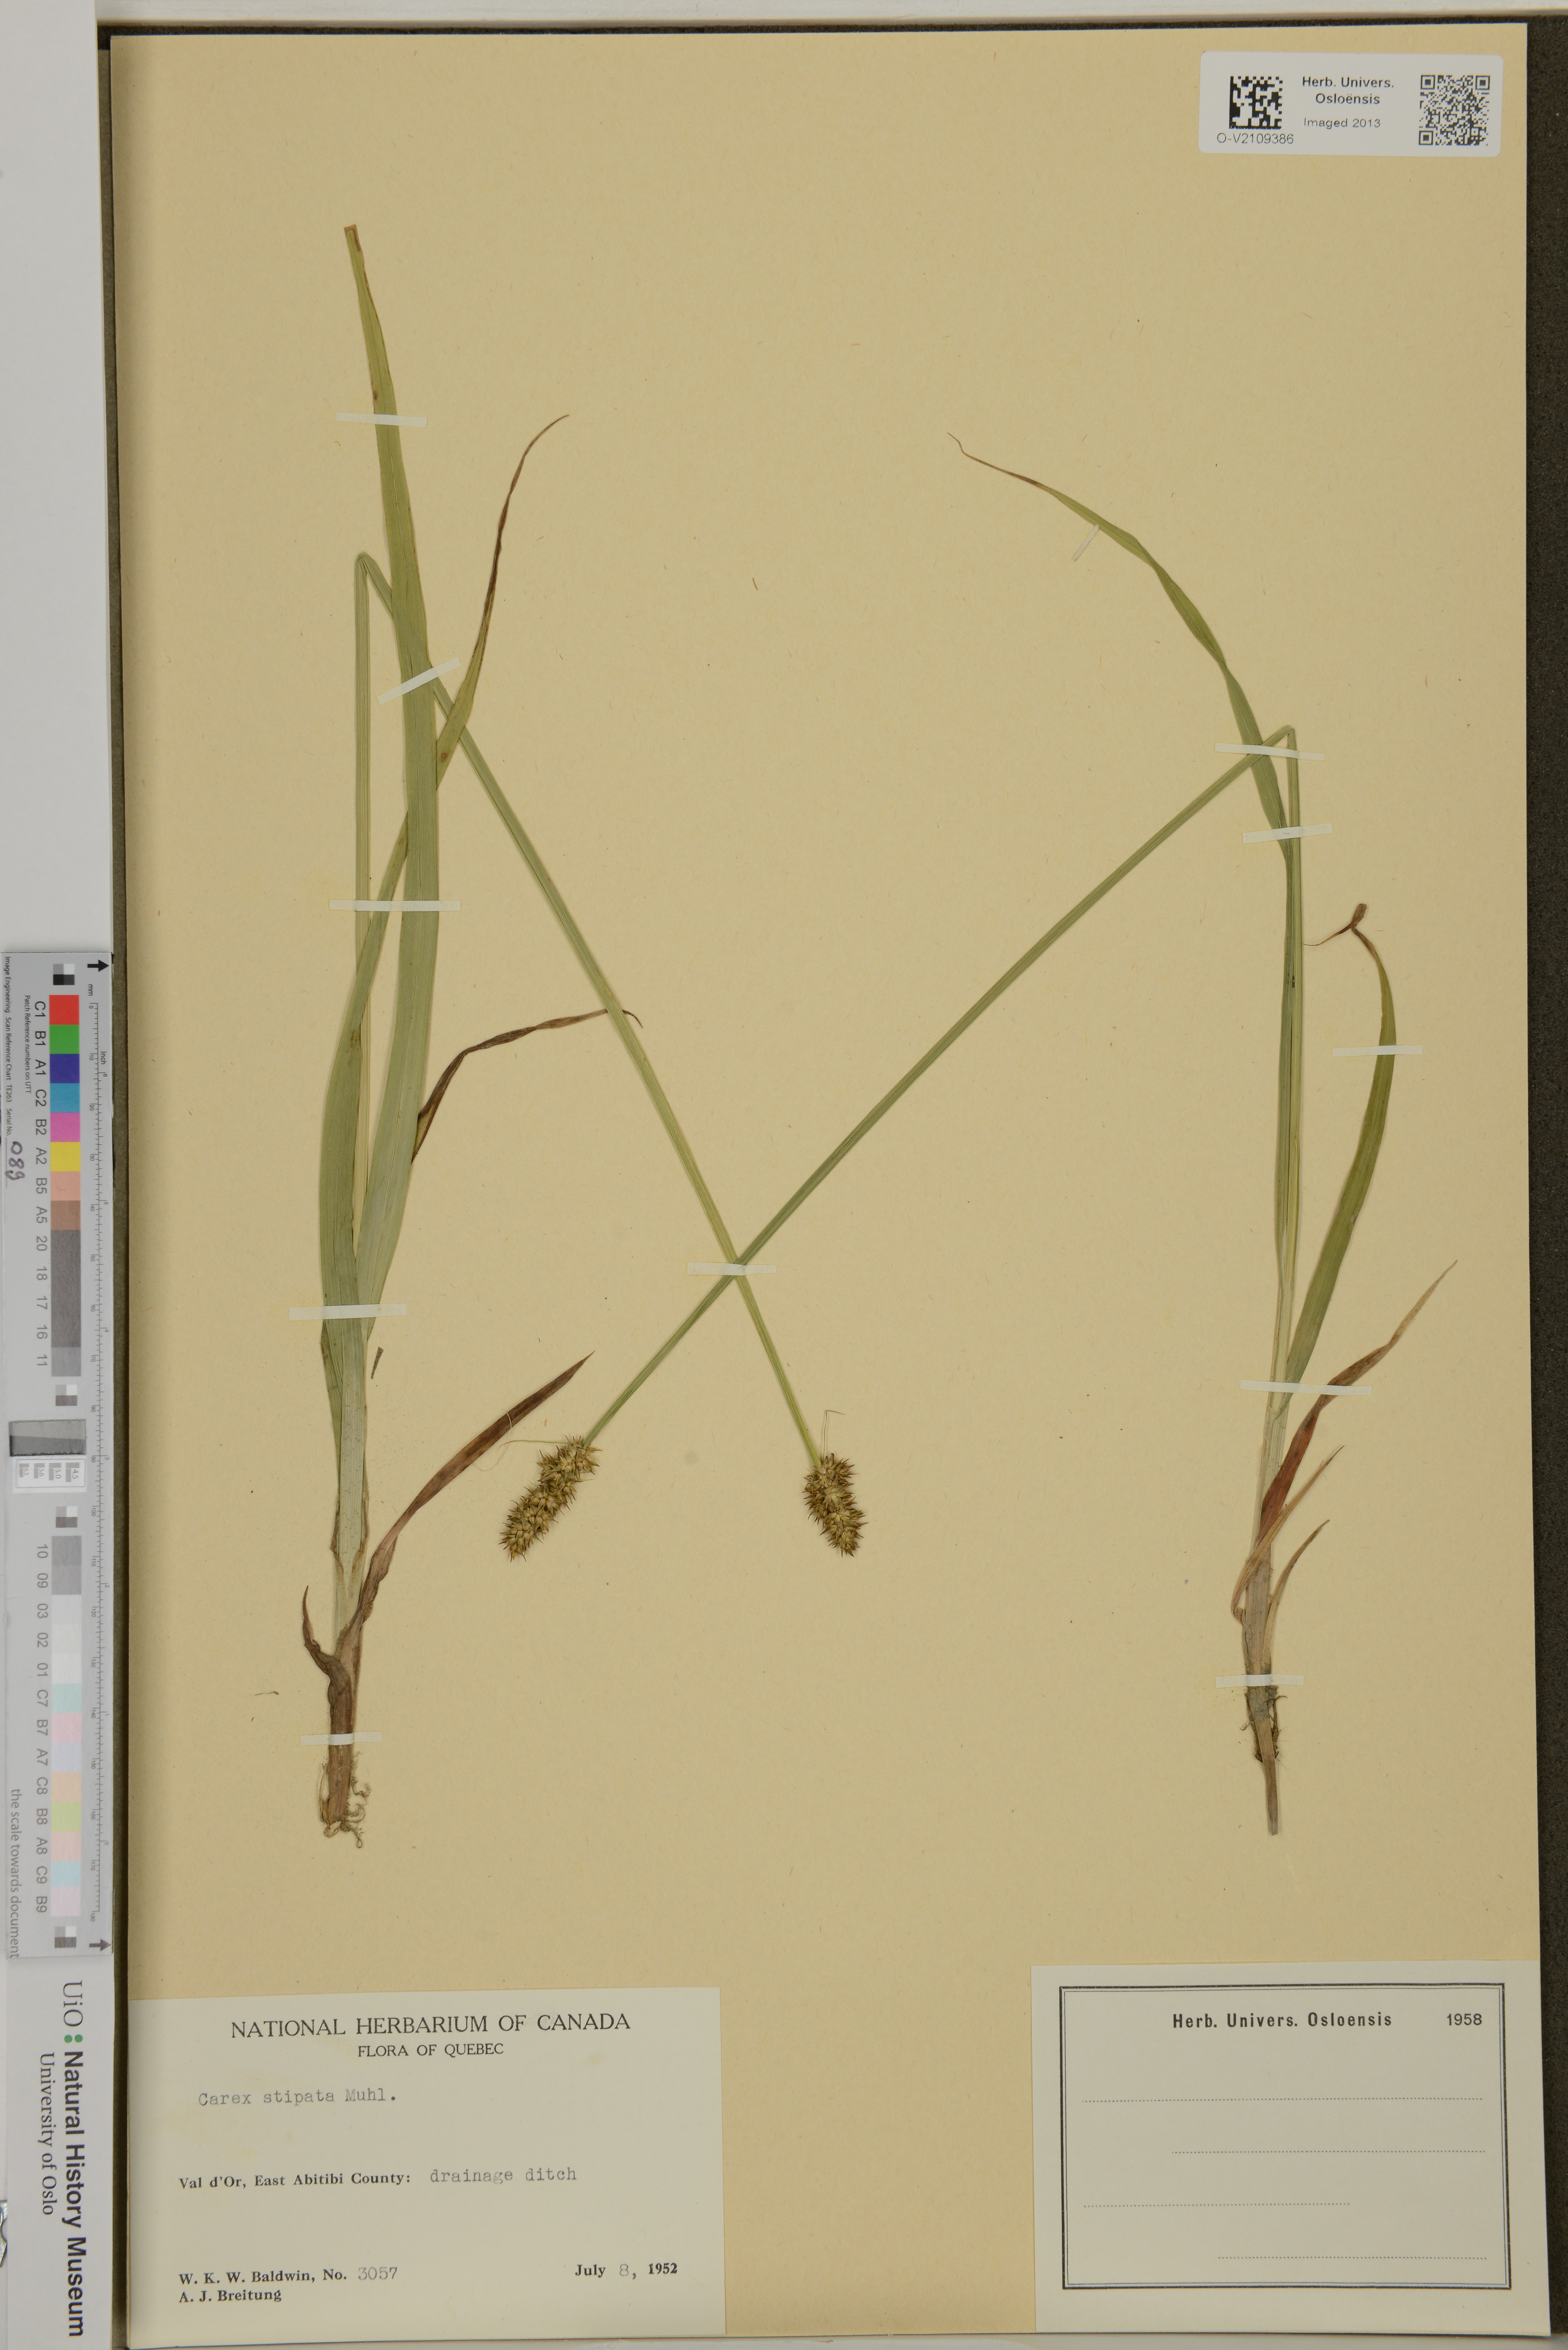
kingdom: Plantae
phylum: Tracheophyta
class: Liliopsida
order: Poales
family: Cyperaceae
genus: Carex
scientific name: Carex stipata
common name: Awl-fruited sedge
